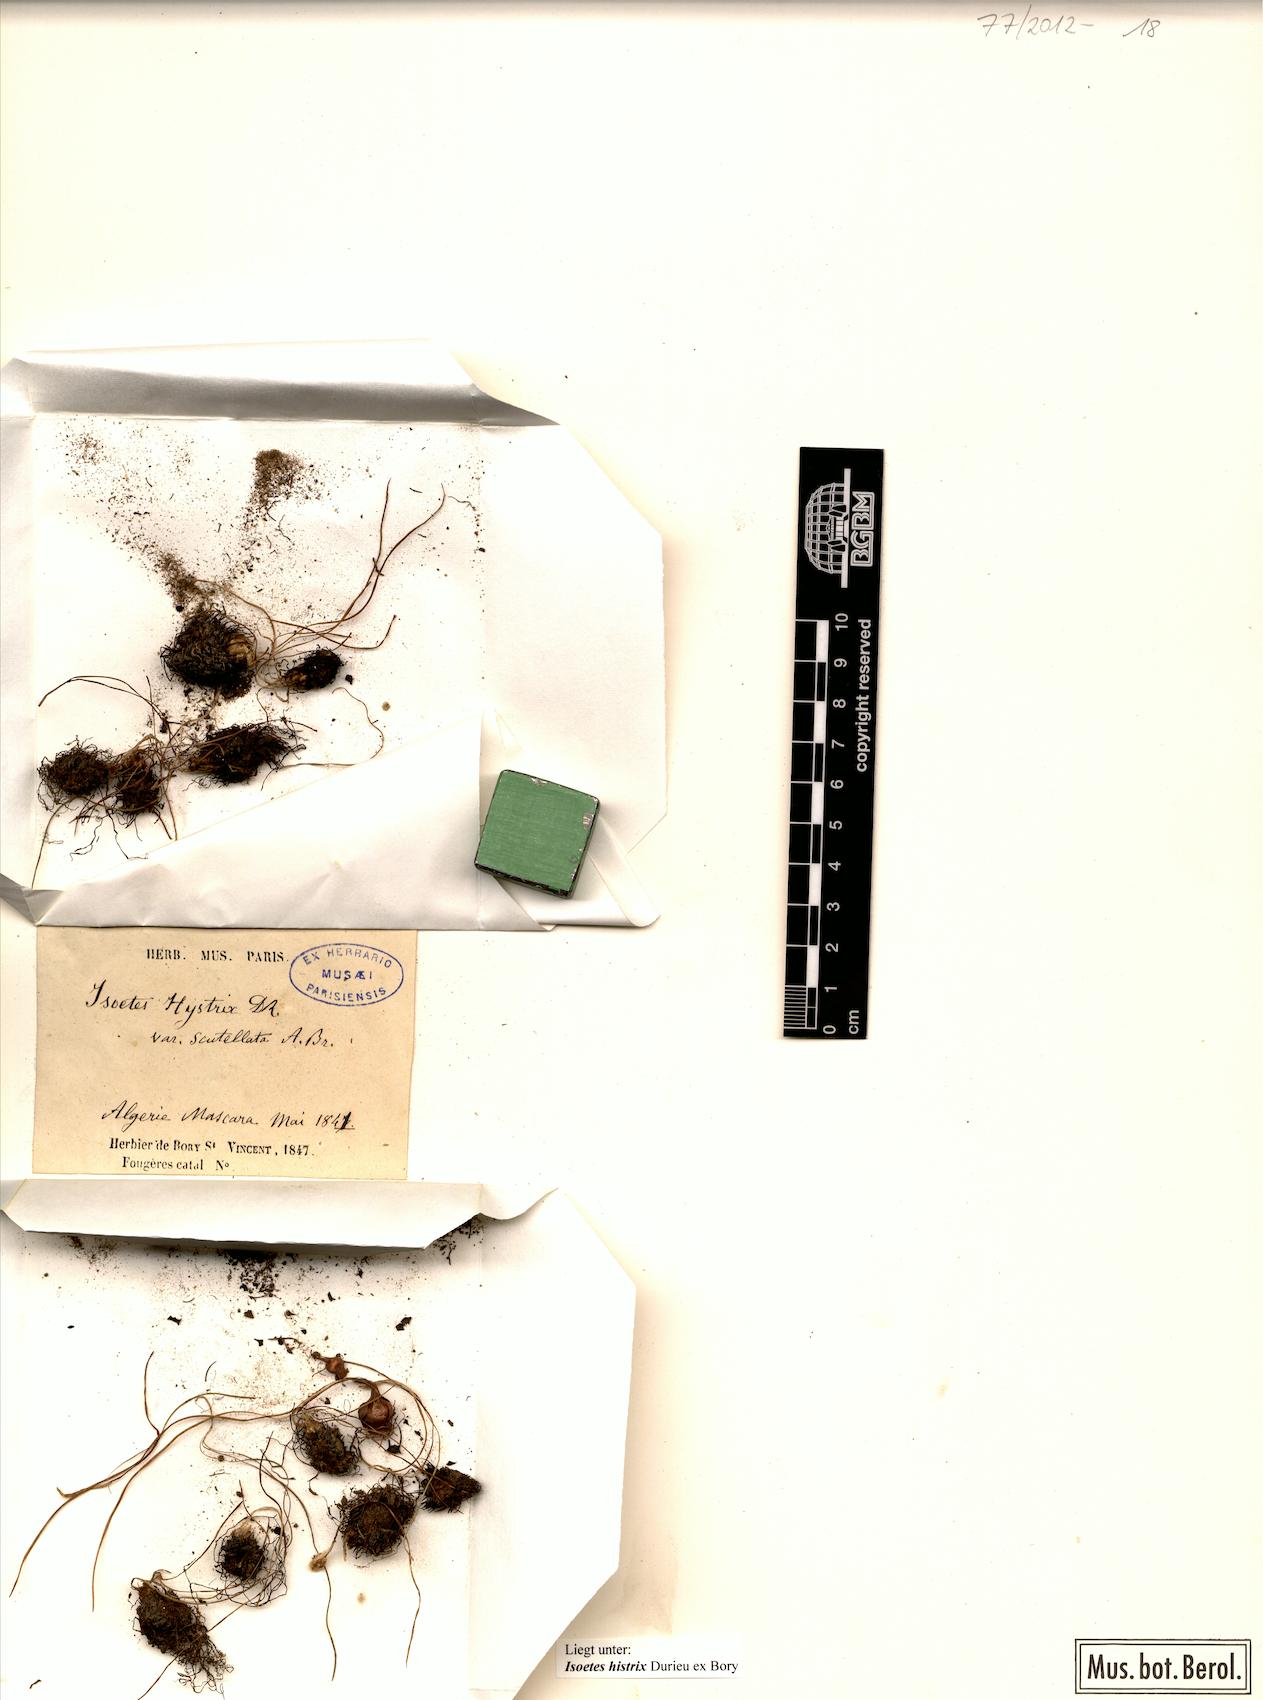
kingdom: Plantae
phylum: Tracheophyta
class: Lycopodiopsida
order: Isoetales
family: Isoetaceae
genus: Isoetes
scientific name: Isoetes histrix
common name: Land quillwort
